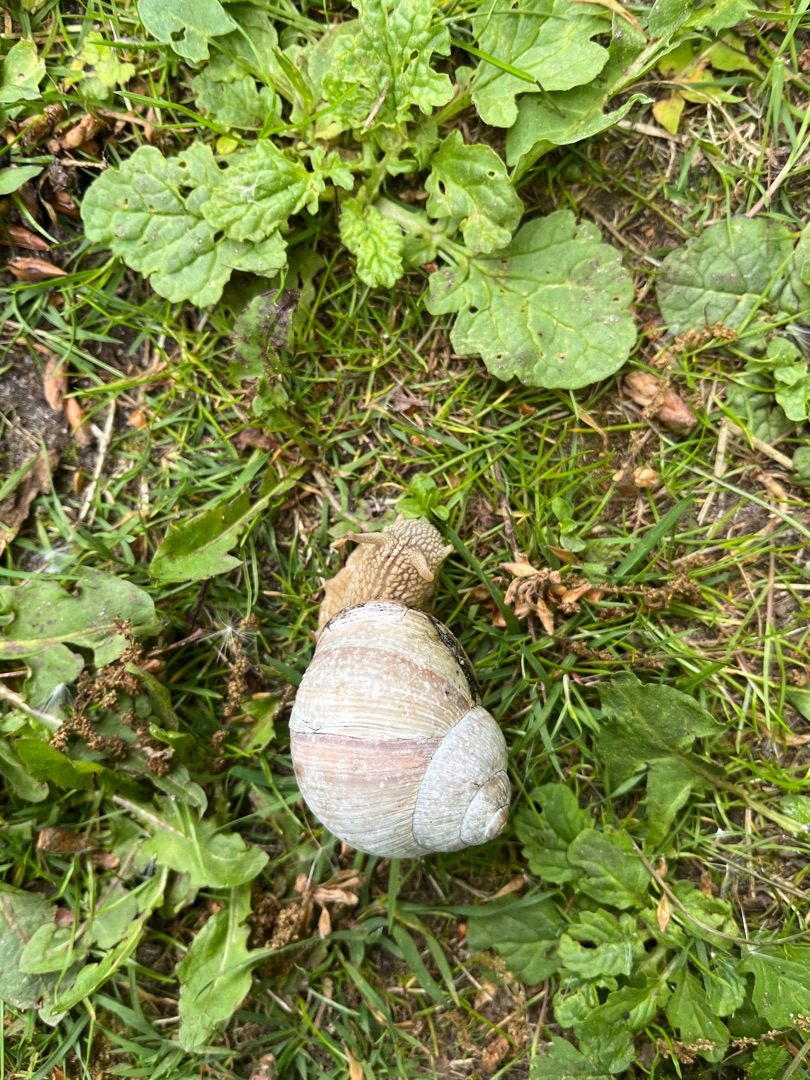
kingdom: Animalia
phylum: Mollusca
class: Gastropoda
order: Stylommatophora
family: Helicidae
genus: Helix
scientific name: Helix pomatia
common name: Vinbjergsnegl
